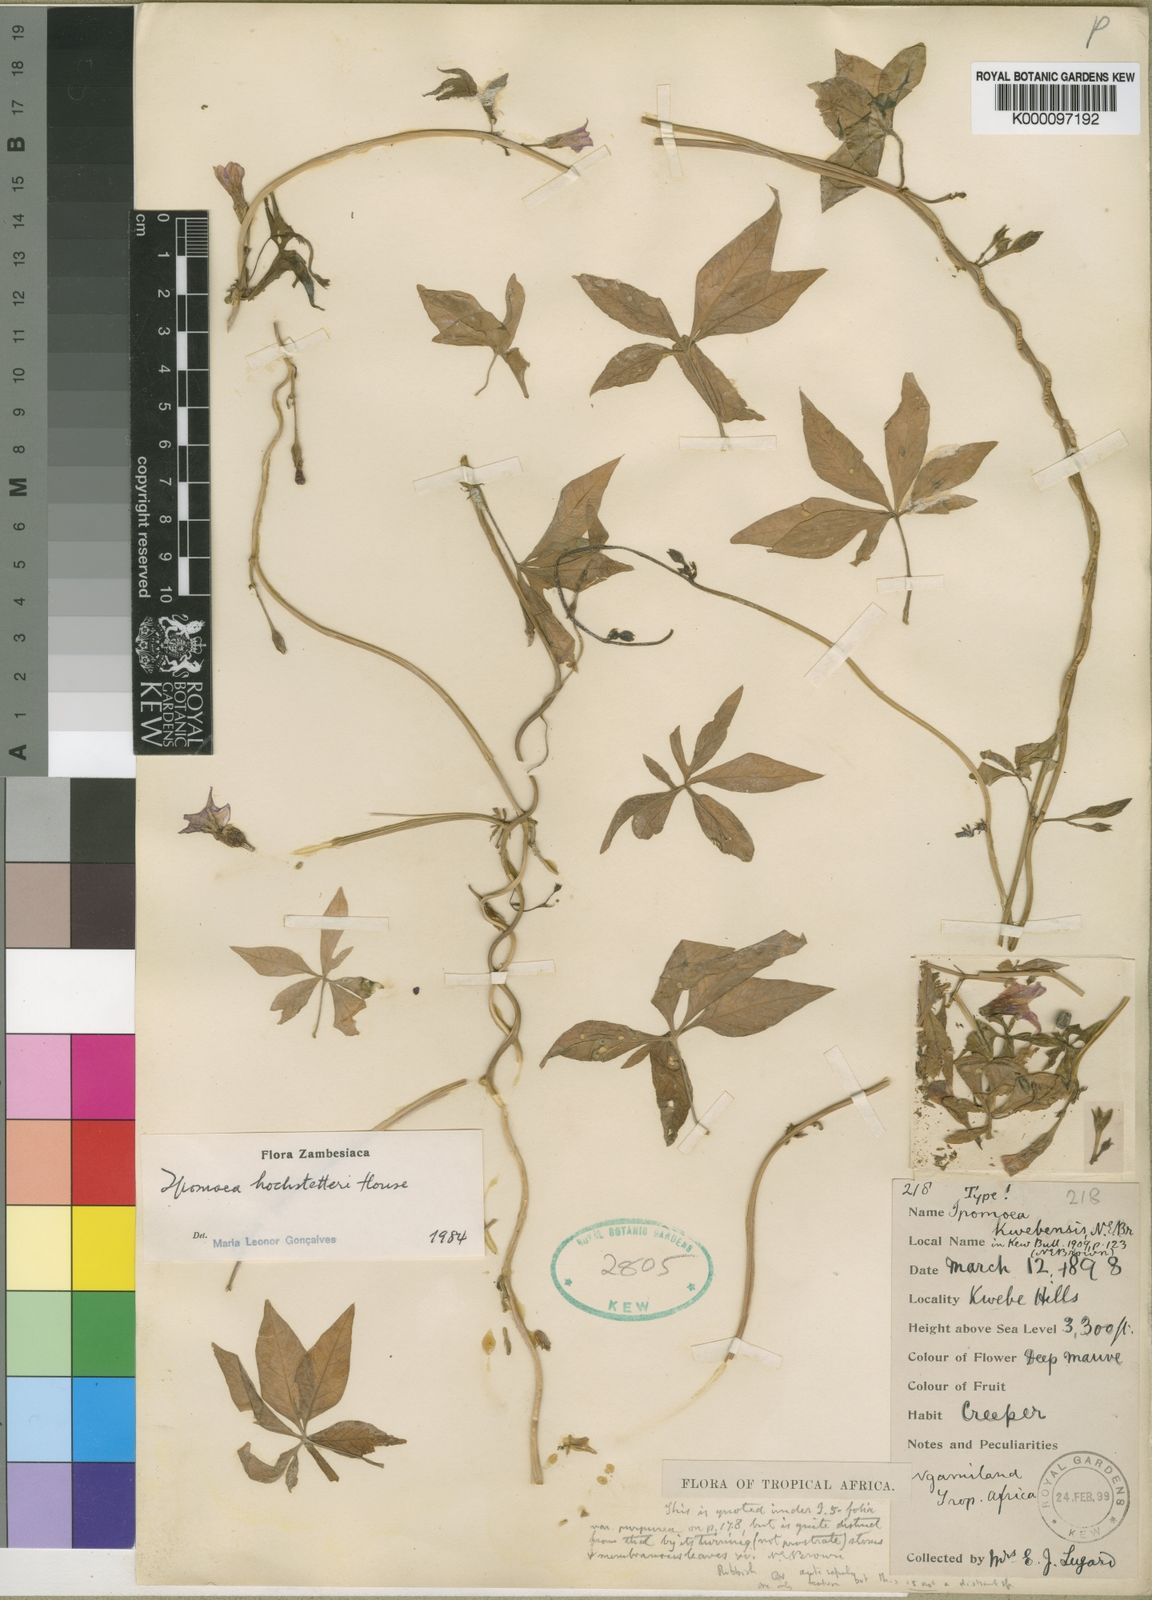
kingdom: Plantae
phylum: Tracheophyta
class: Magnoliopsida
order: Solanales
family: Convolvulaceae
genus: Ipomoea
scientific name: Ipomoea hochstetteri
